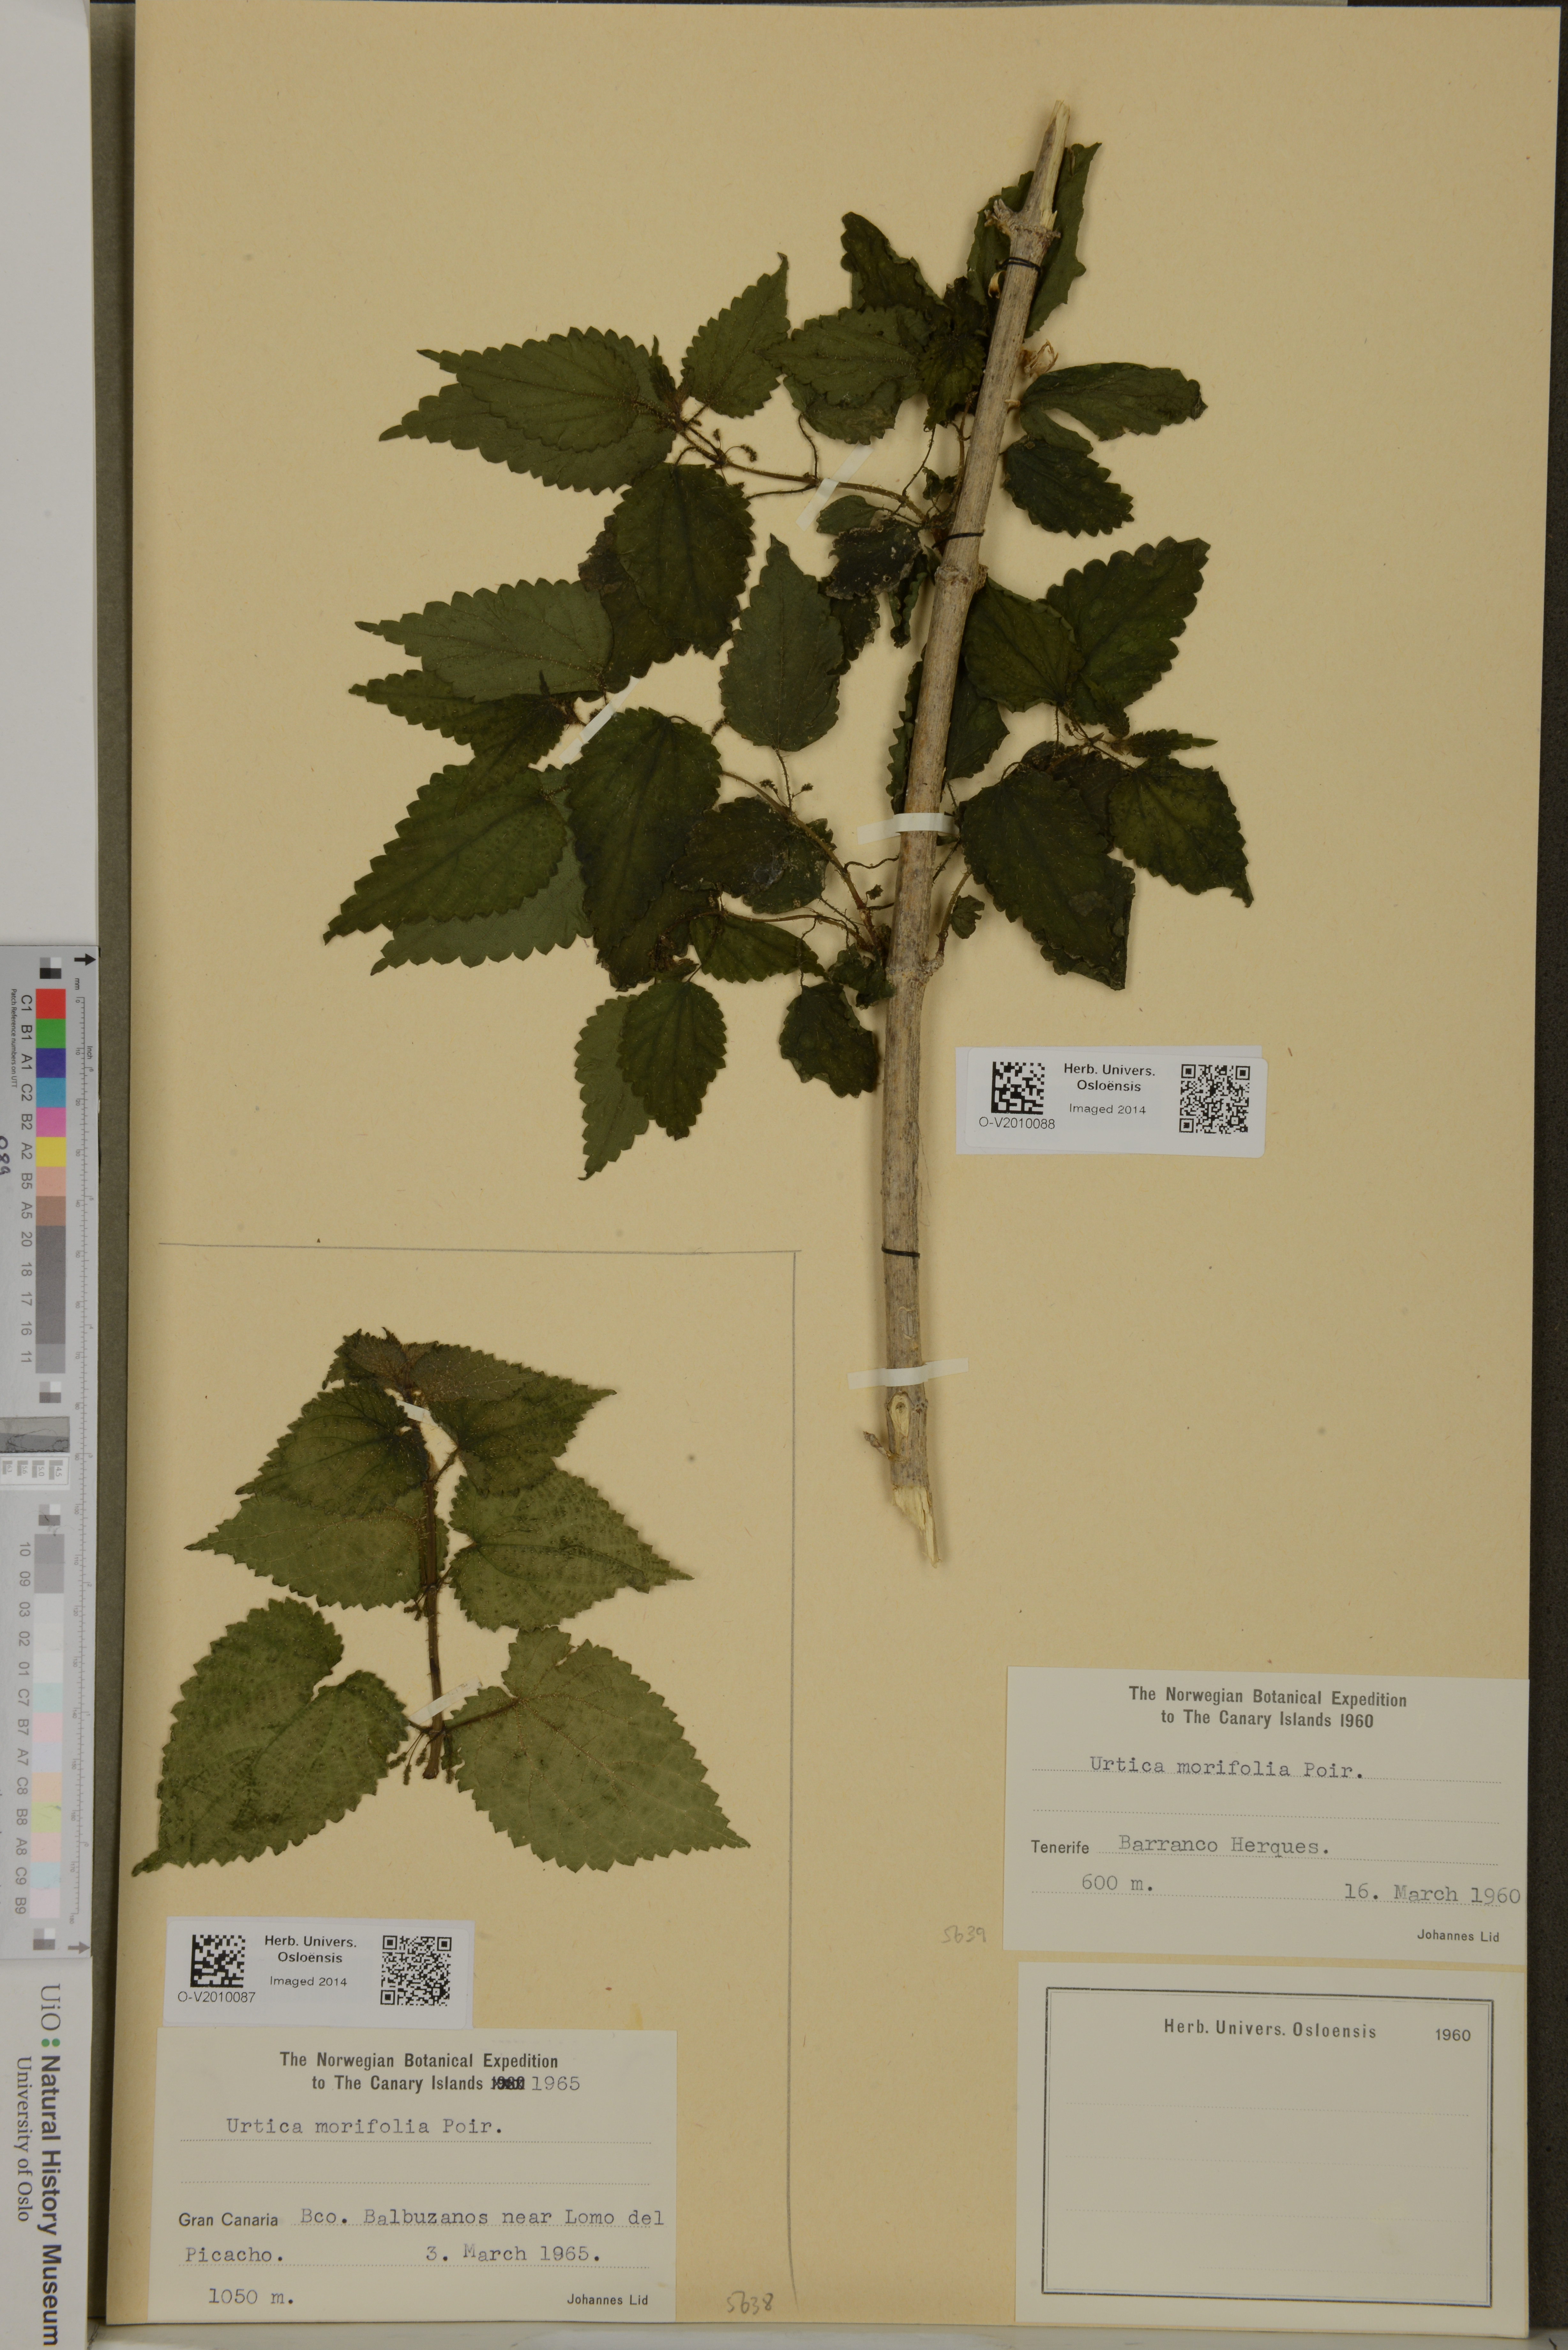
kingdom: Plantae
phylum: Tracheophyta
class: Magnoliopsida
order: Rosales
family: Urticaceae
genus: Urtica
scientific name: Urtica morifolia
